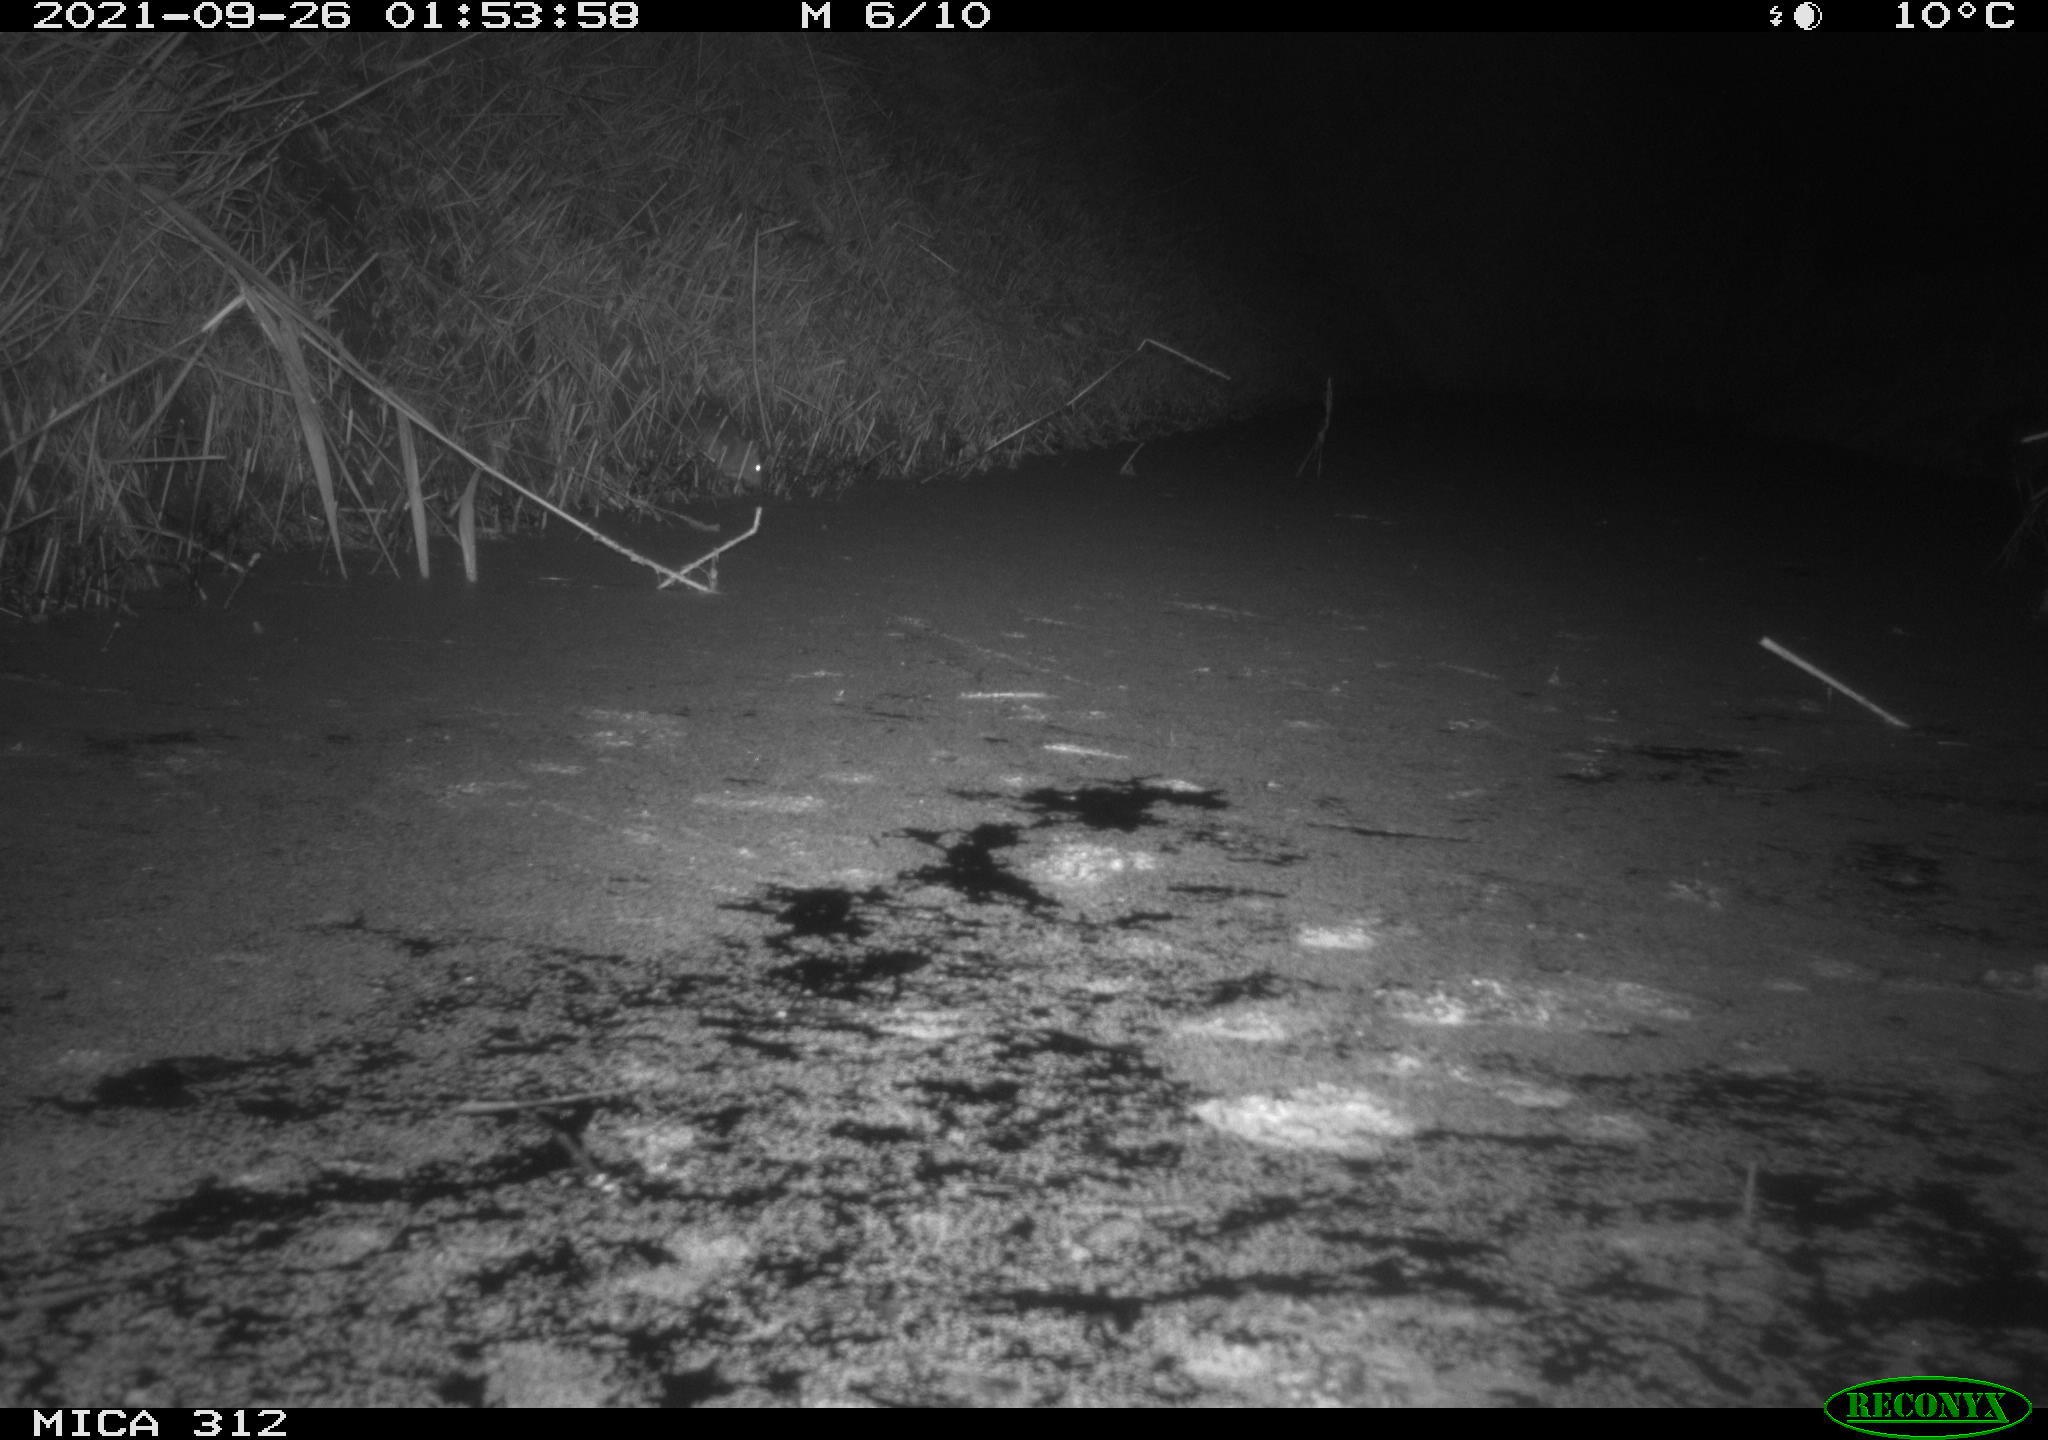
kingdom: Animalia
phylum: Chordata
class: Mammalia
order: Rodentia
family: Muridae
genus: Rattus
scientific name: Rattus norvegicus
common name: Brown rat
